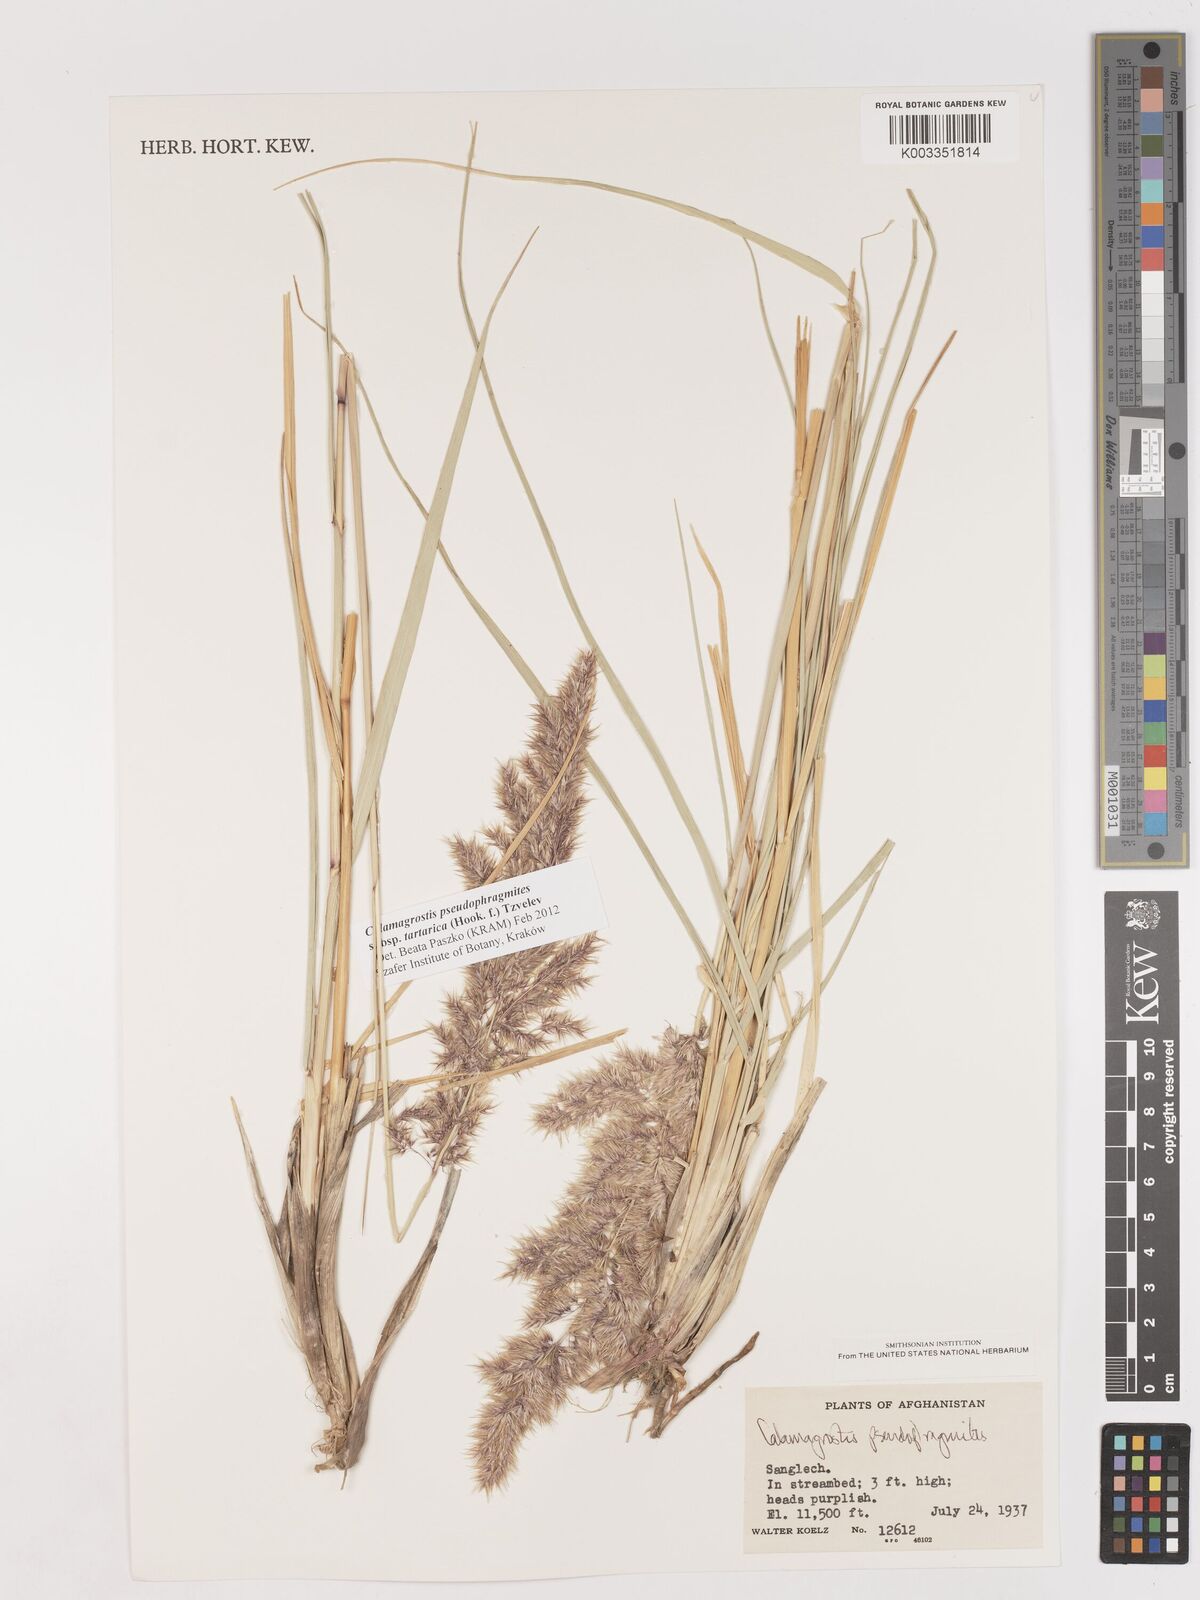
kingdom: Plantae
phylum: Tracheophyta
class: Liliopsida
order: Poales
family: Poaceae
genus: Calamagrostis
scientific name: Calamagrostis pseudophragmites
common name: Coastal small-reed
